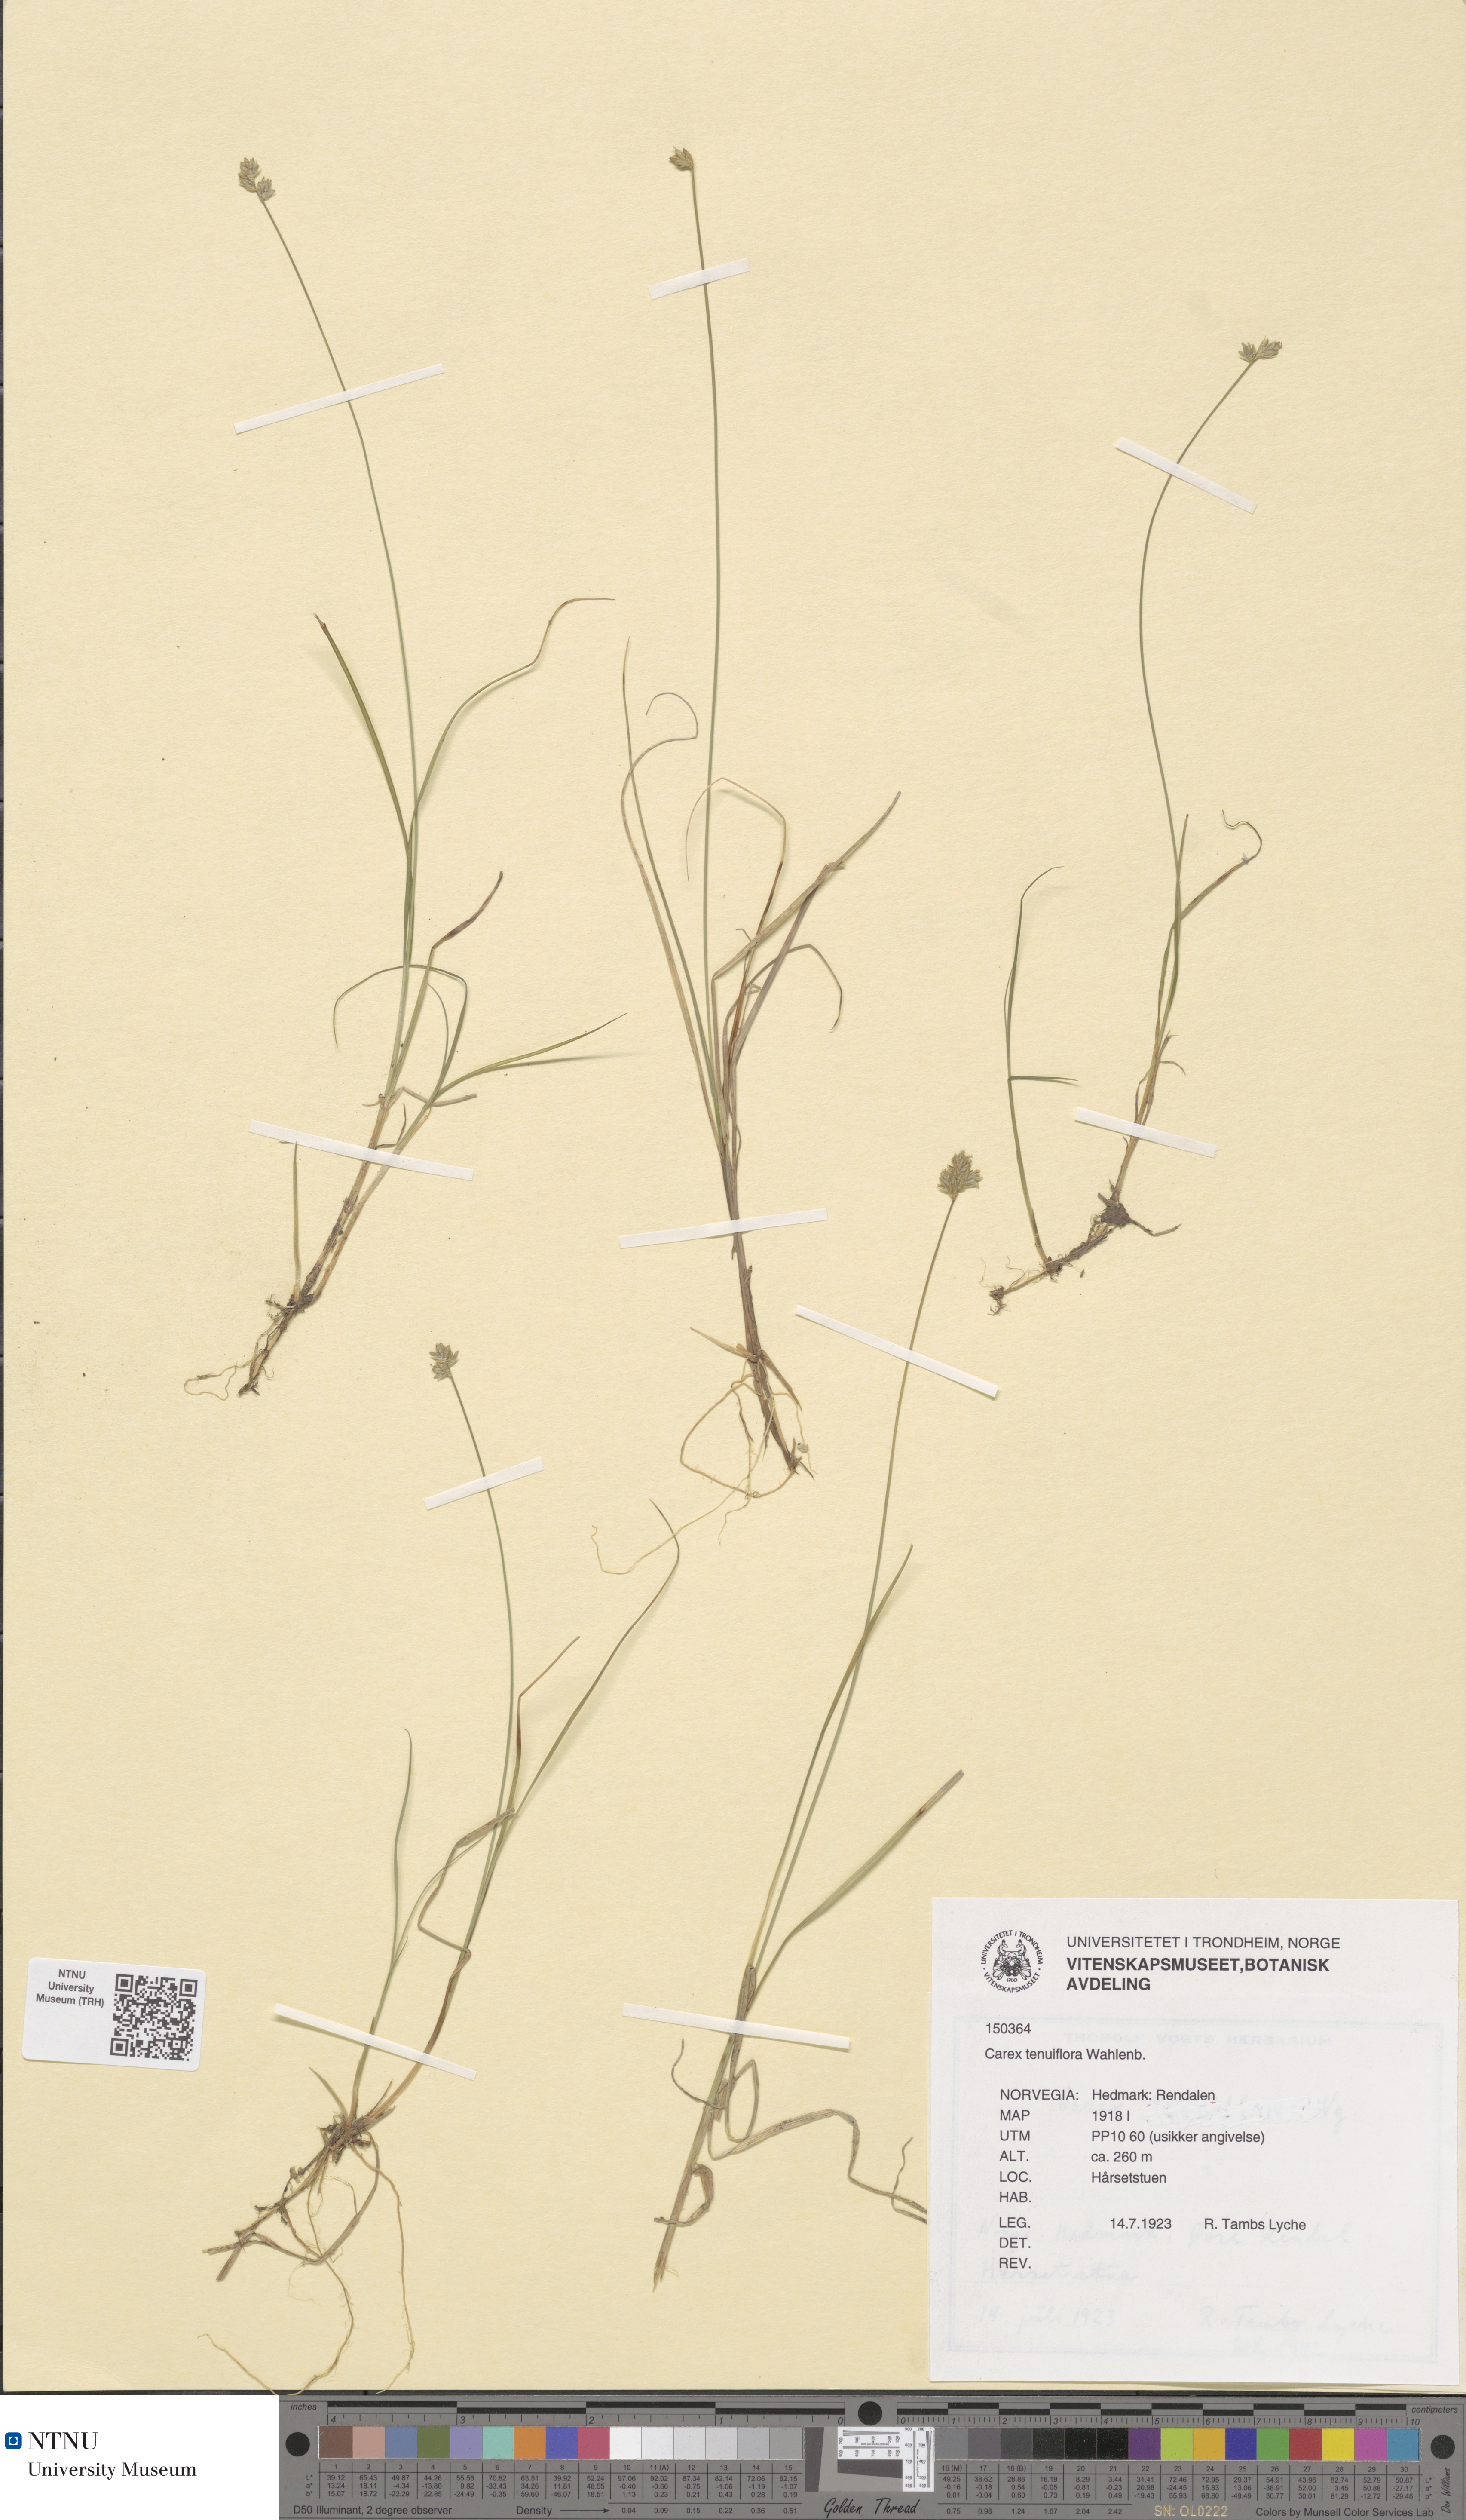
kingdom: Plantae
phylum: Tracheophyta
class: Liliopsida
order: Poales
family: Cyperaceae
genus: Carex
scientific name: Carex tenuiflora
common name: Sparse-flowered sedge
